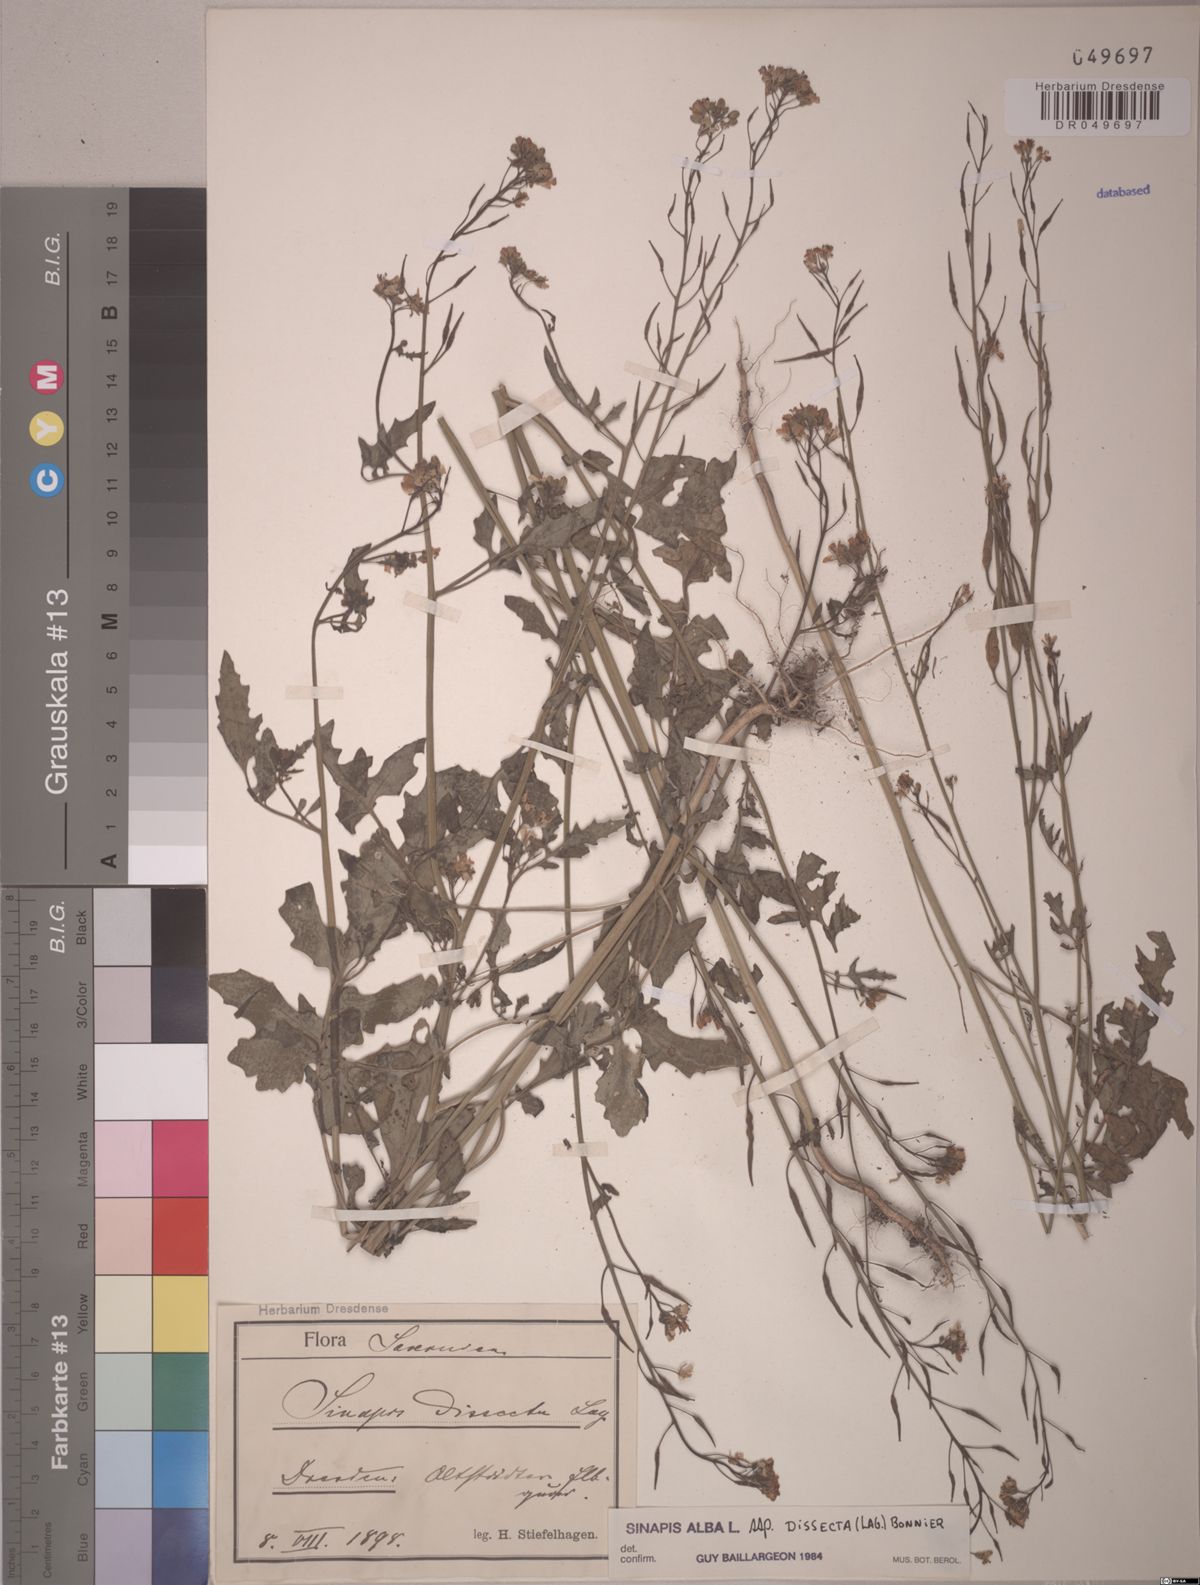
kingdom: Plantae
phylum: Tracheophyta
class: Magnoliopsida
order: Brassicales
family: Brassicaceae
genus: Sinapis
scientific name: Sinapis alba
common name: White mustard
